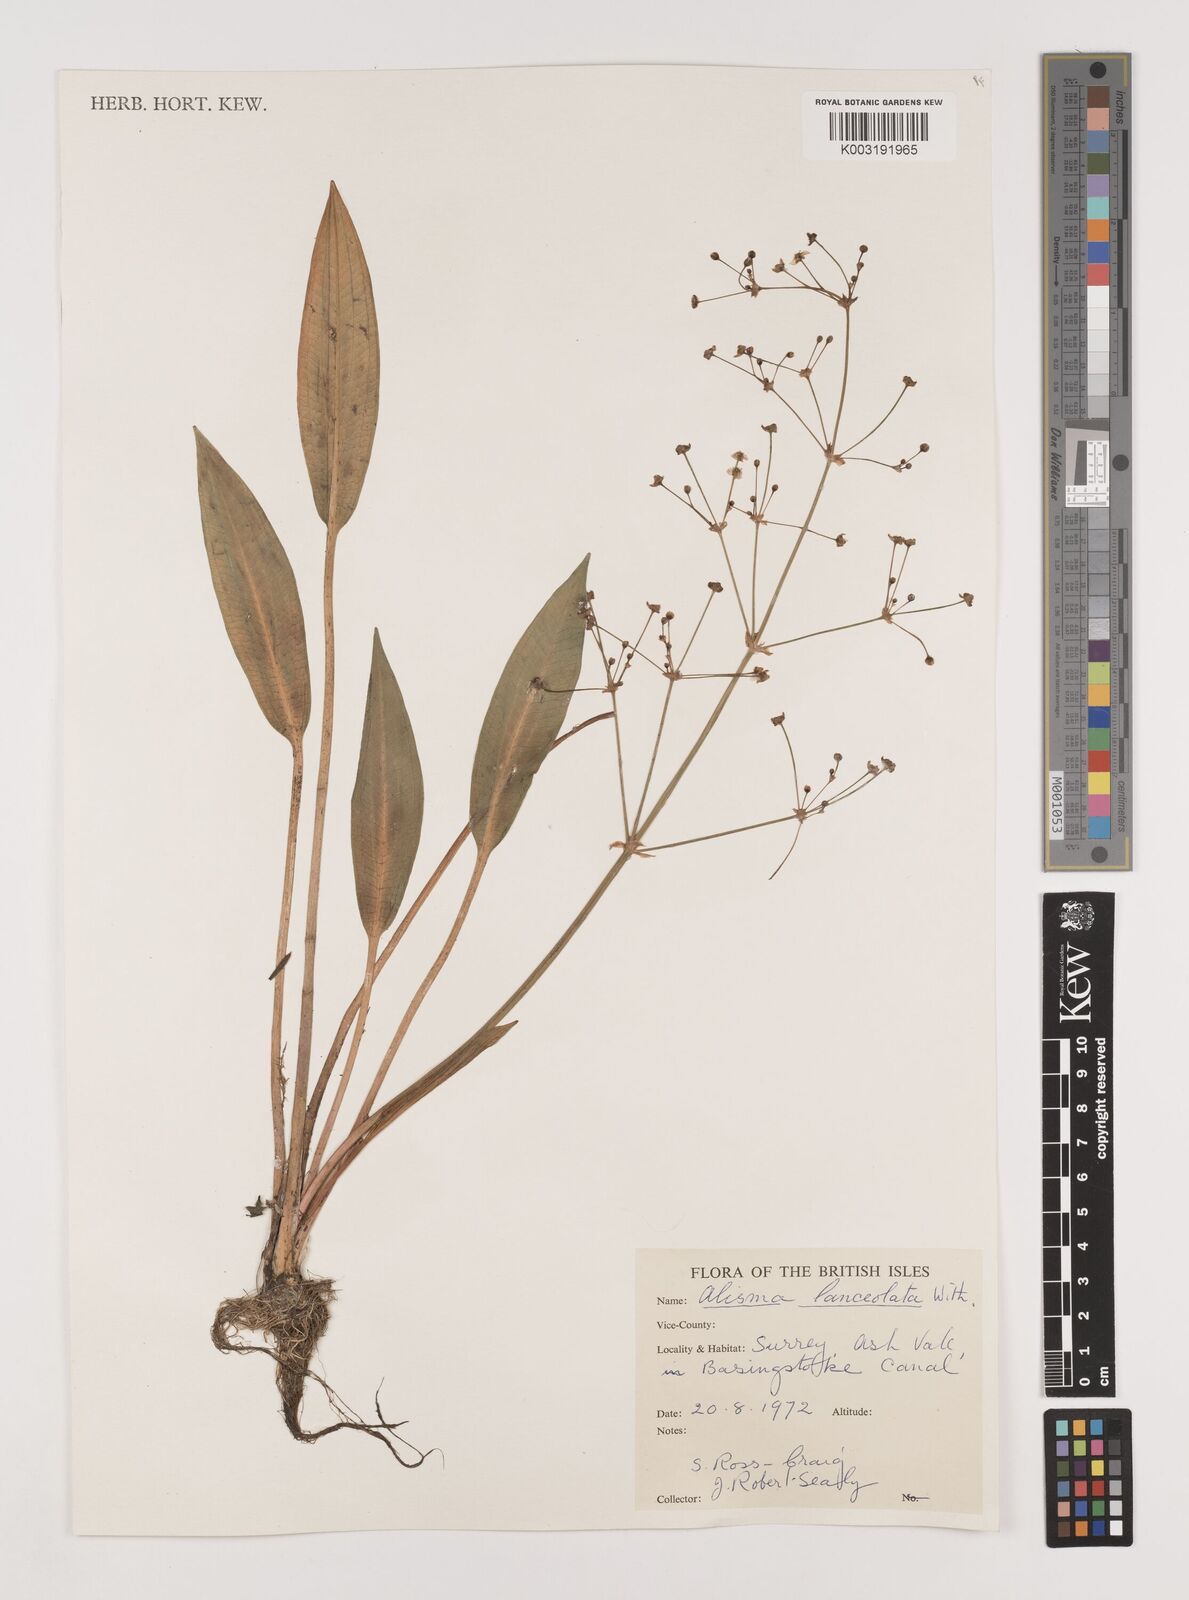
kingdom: Plantae
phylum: Tracheophyta
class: Liliopsida
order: Alismatales
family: Alismataceae
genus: Alisma
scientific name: Alisma lanceolatum
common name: Narrow-leaved water-plantain
